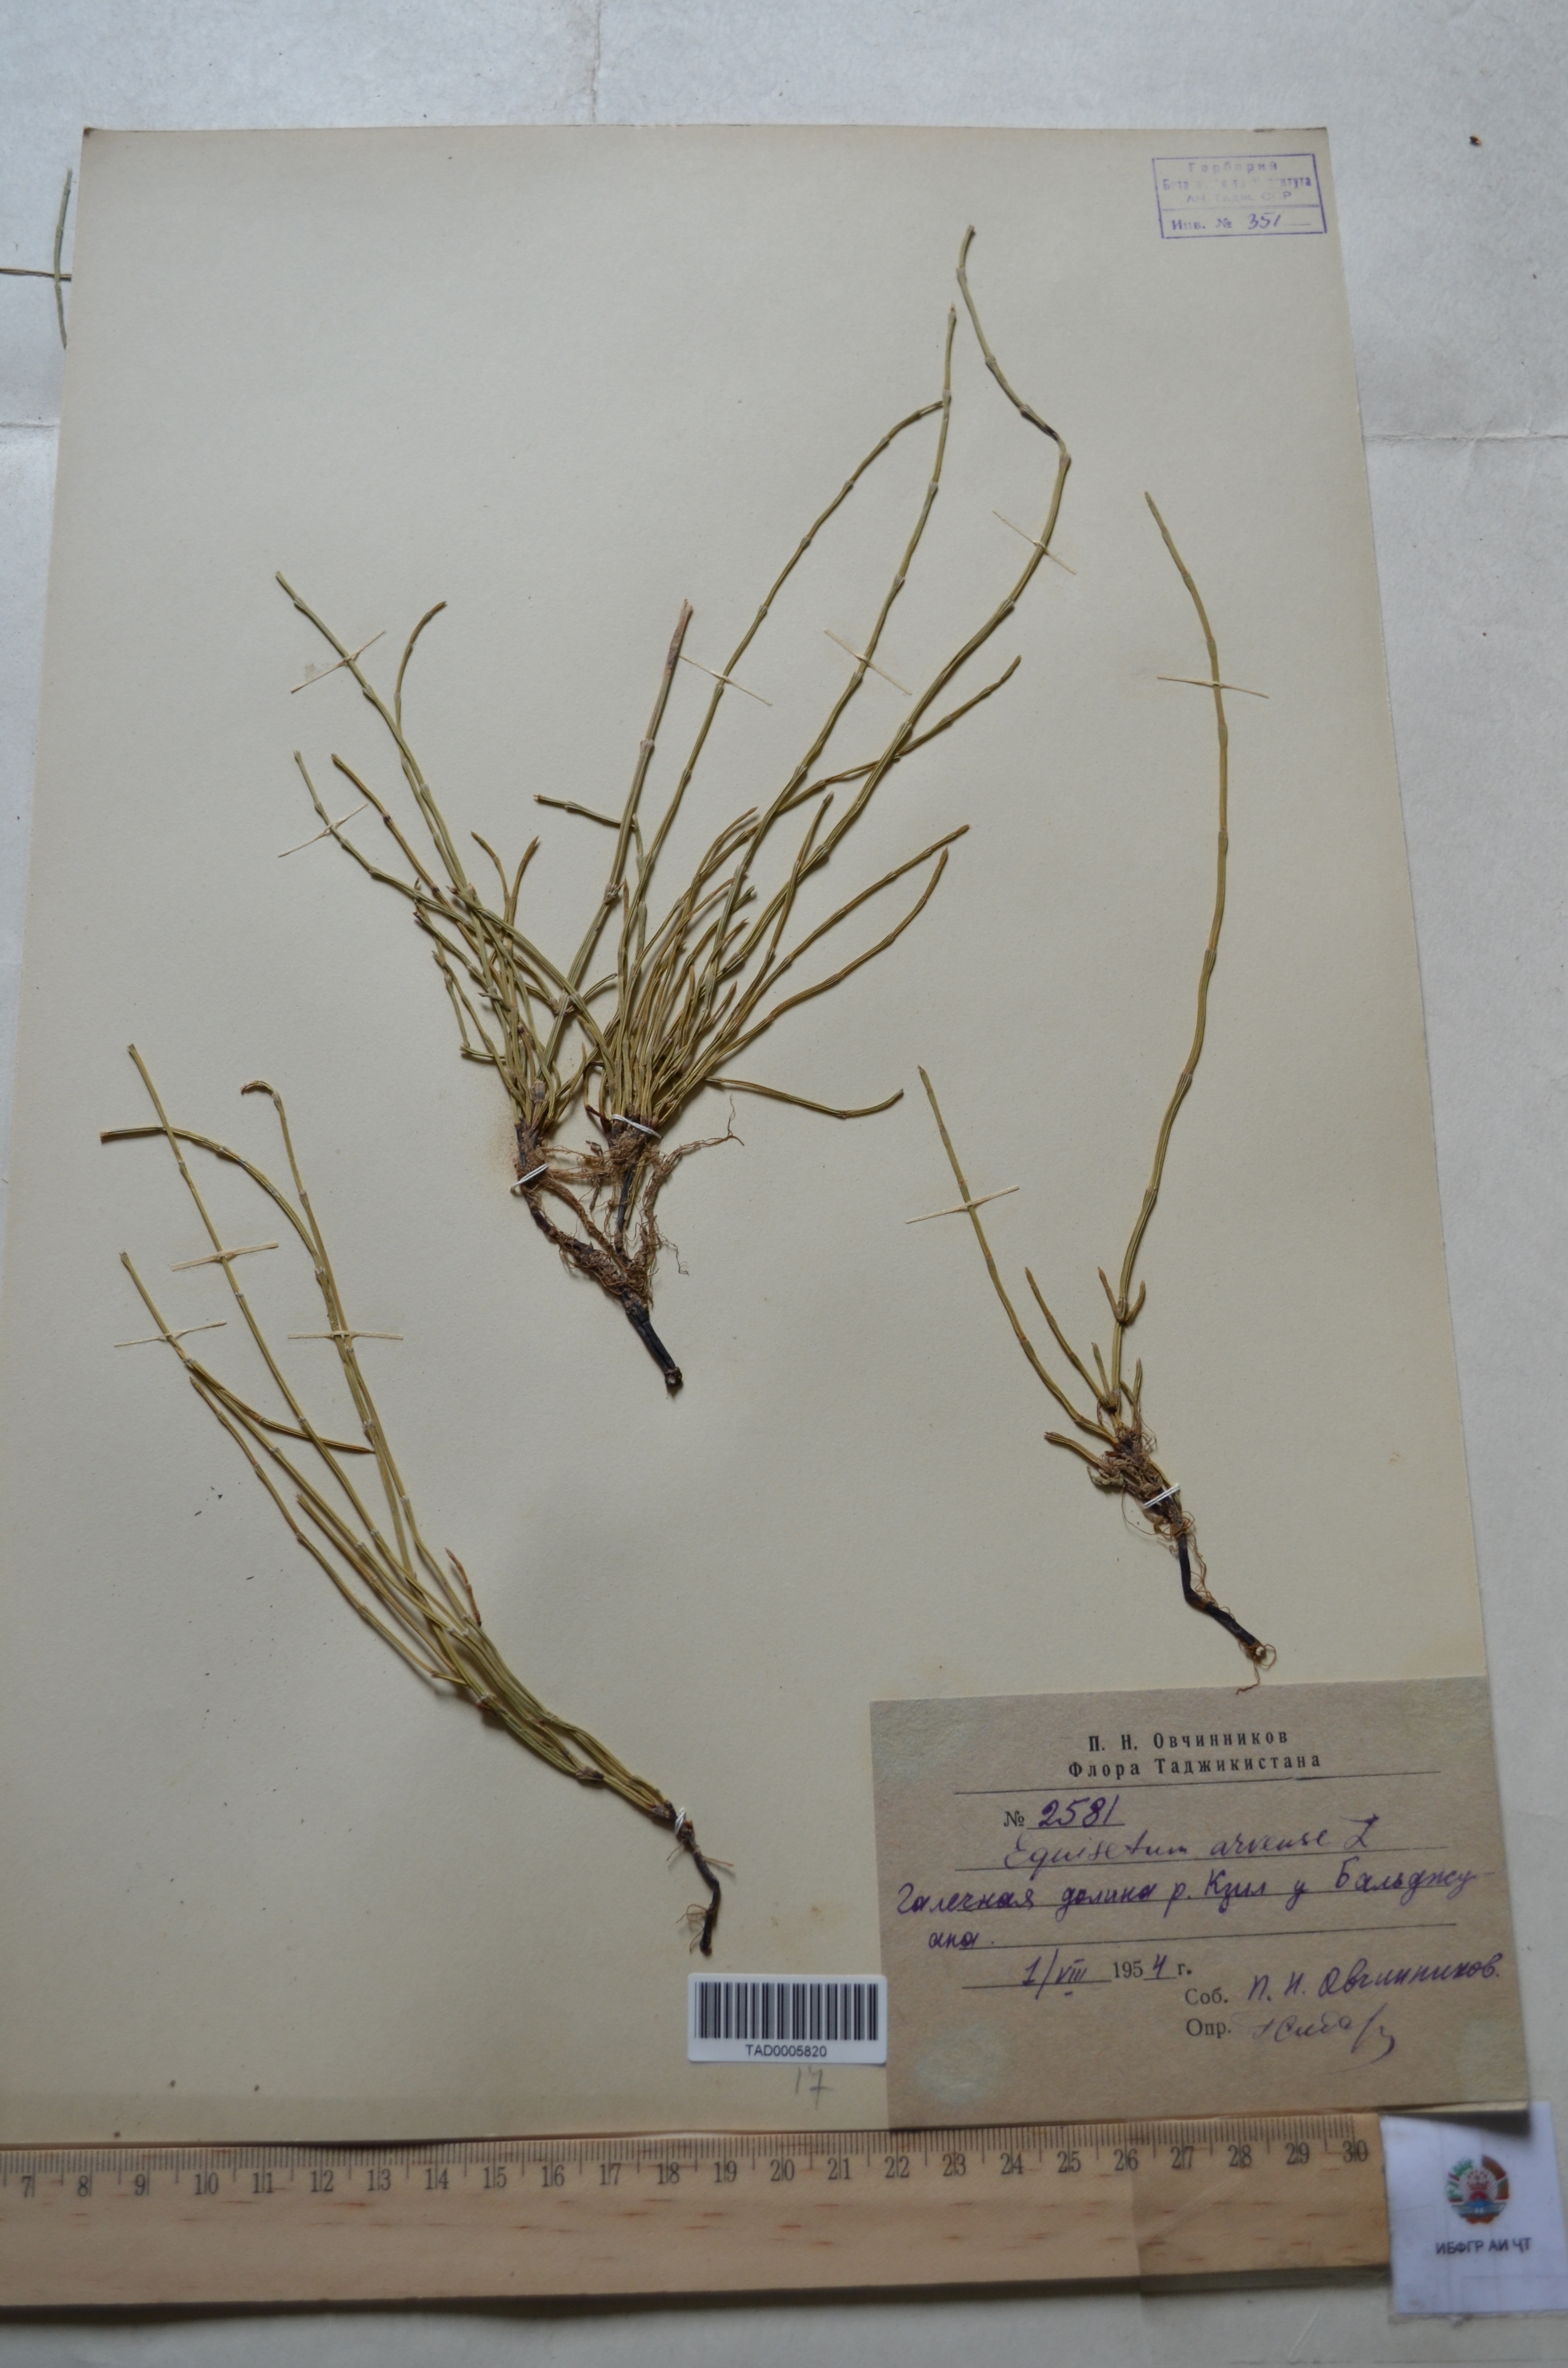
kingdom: Plantae
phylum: Tracheophyta
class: Polypodiopsida
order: Equisetales
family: Equisetaceae
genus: Equisetum
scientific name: Equisetum arvense
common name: Field horsetail
